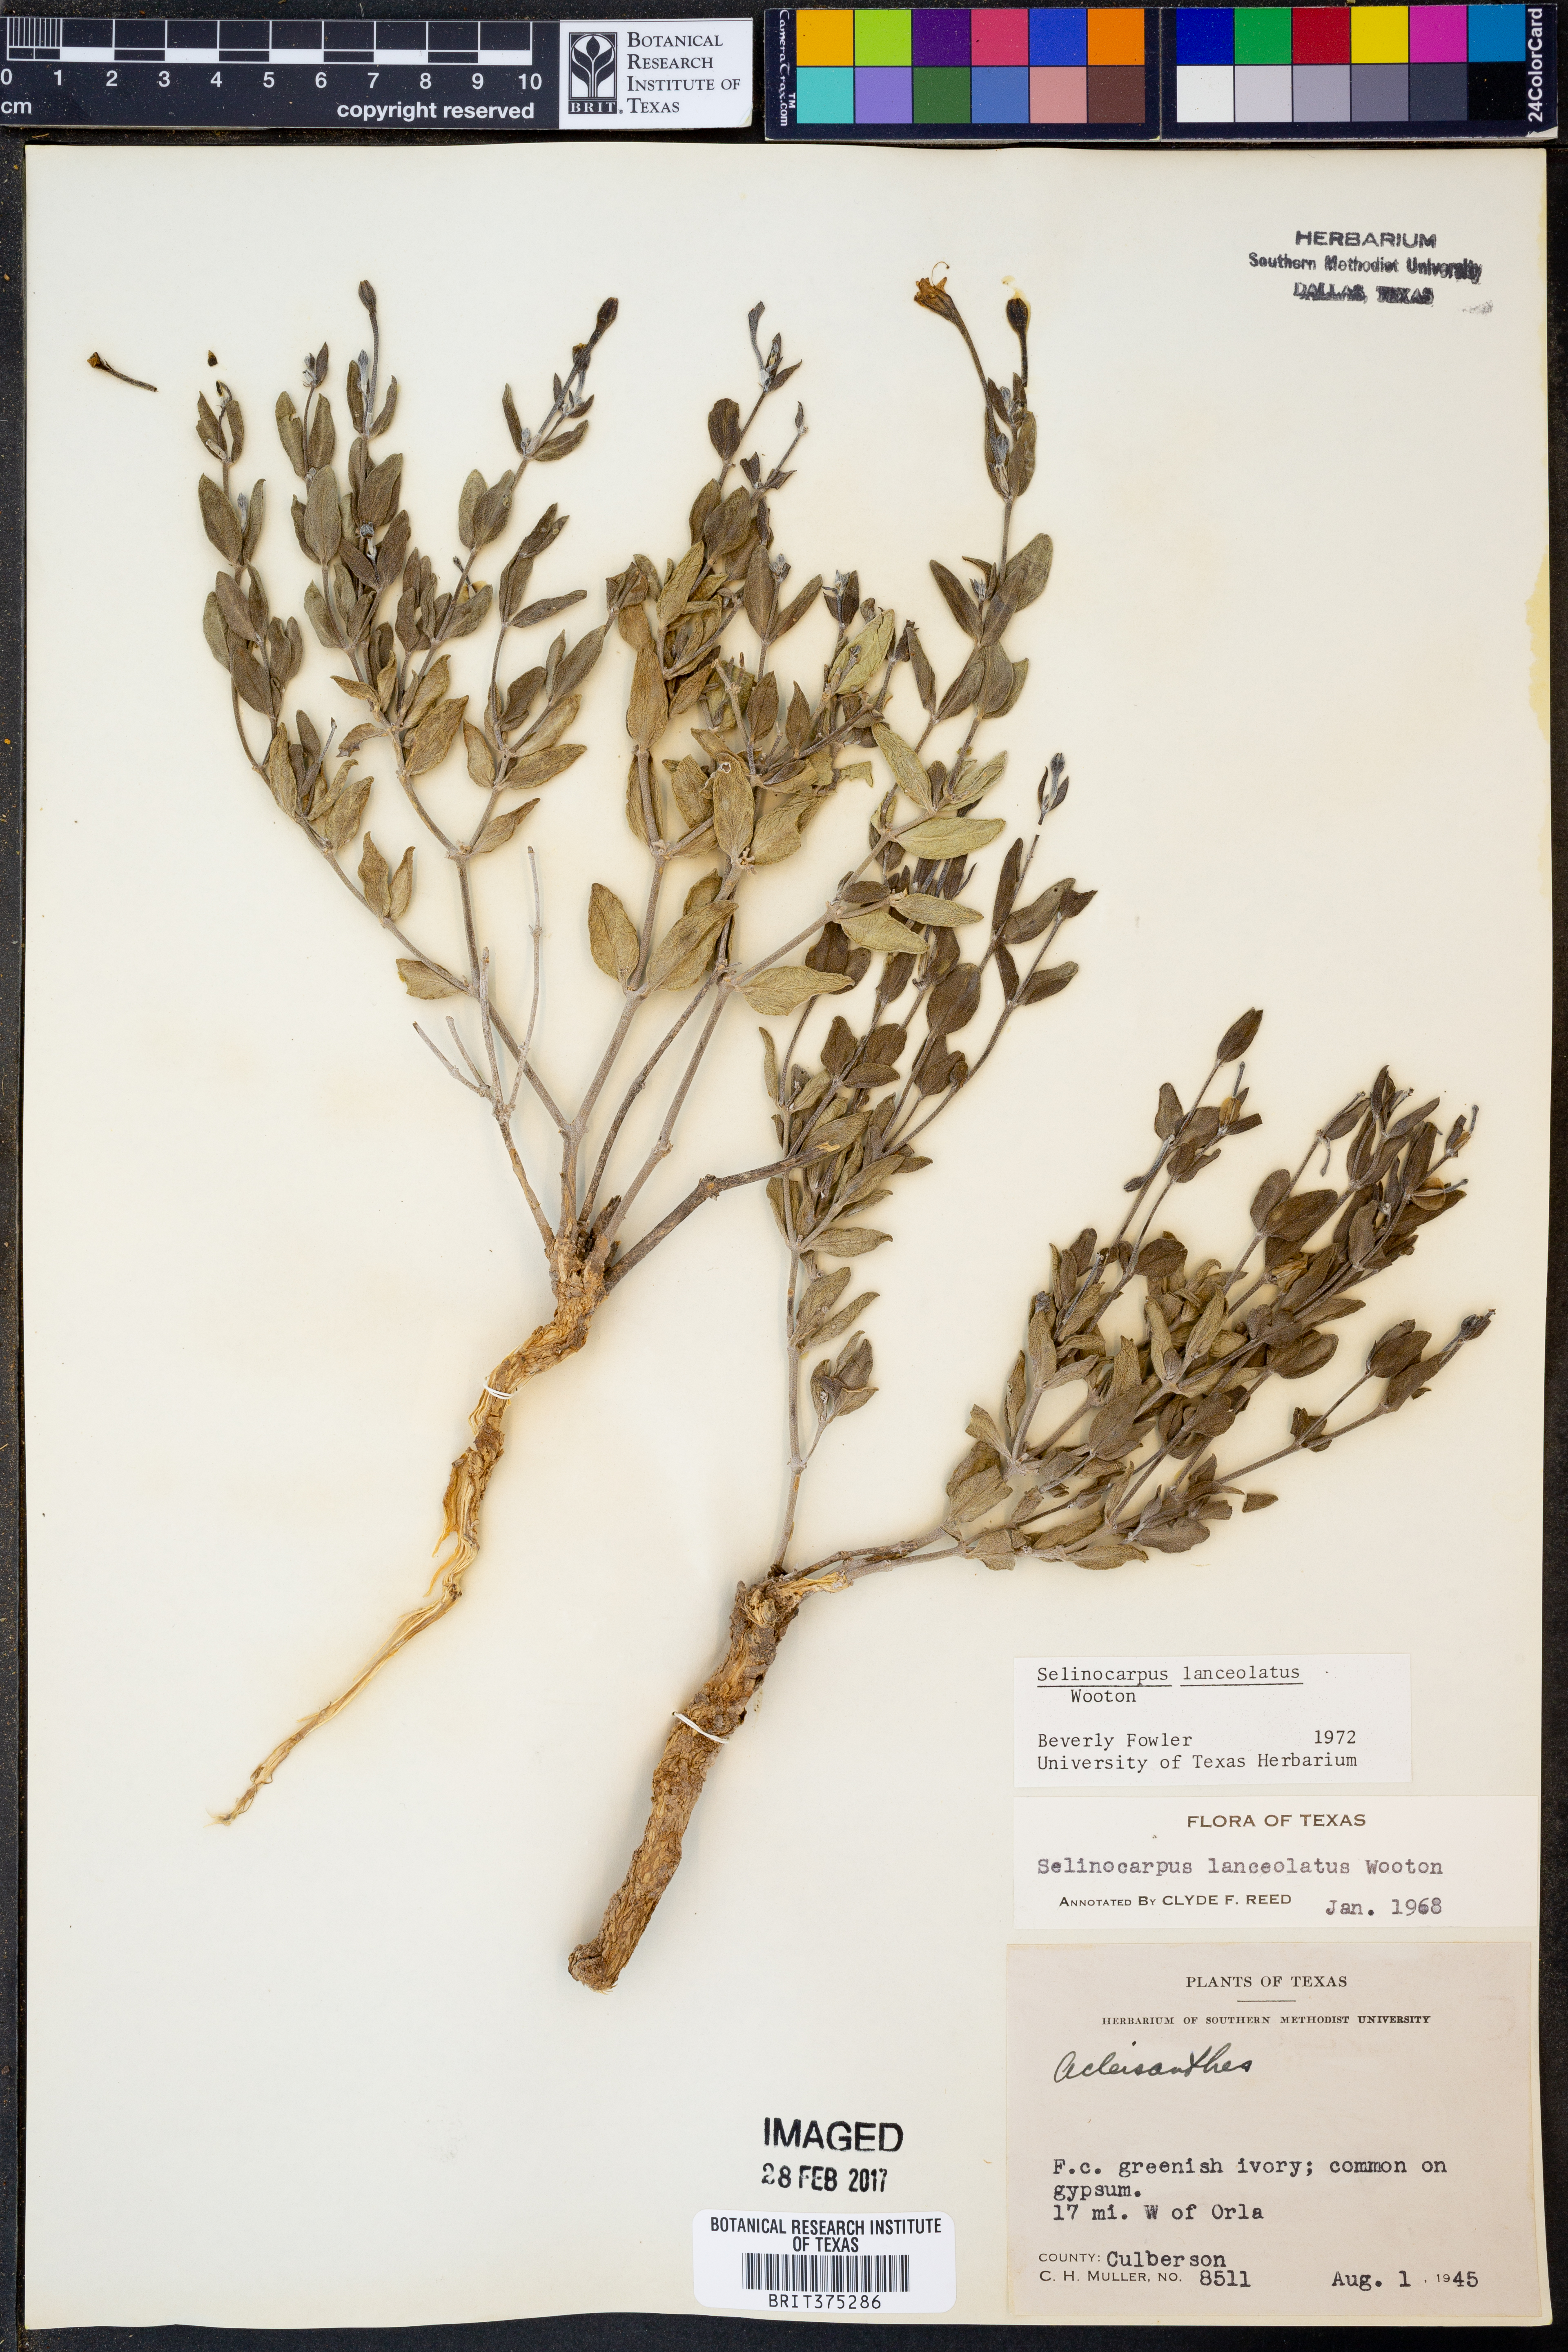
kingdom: Plantae
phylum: Tracheophyta
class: Magnoliopsida
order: Caryophyllales
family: Nyctaginaceae
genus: Acleisanthes
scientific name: Acleisanthes lanceolata
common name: Gypsum moonpod
